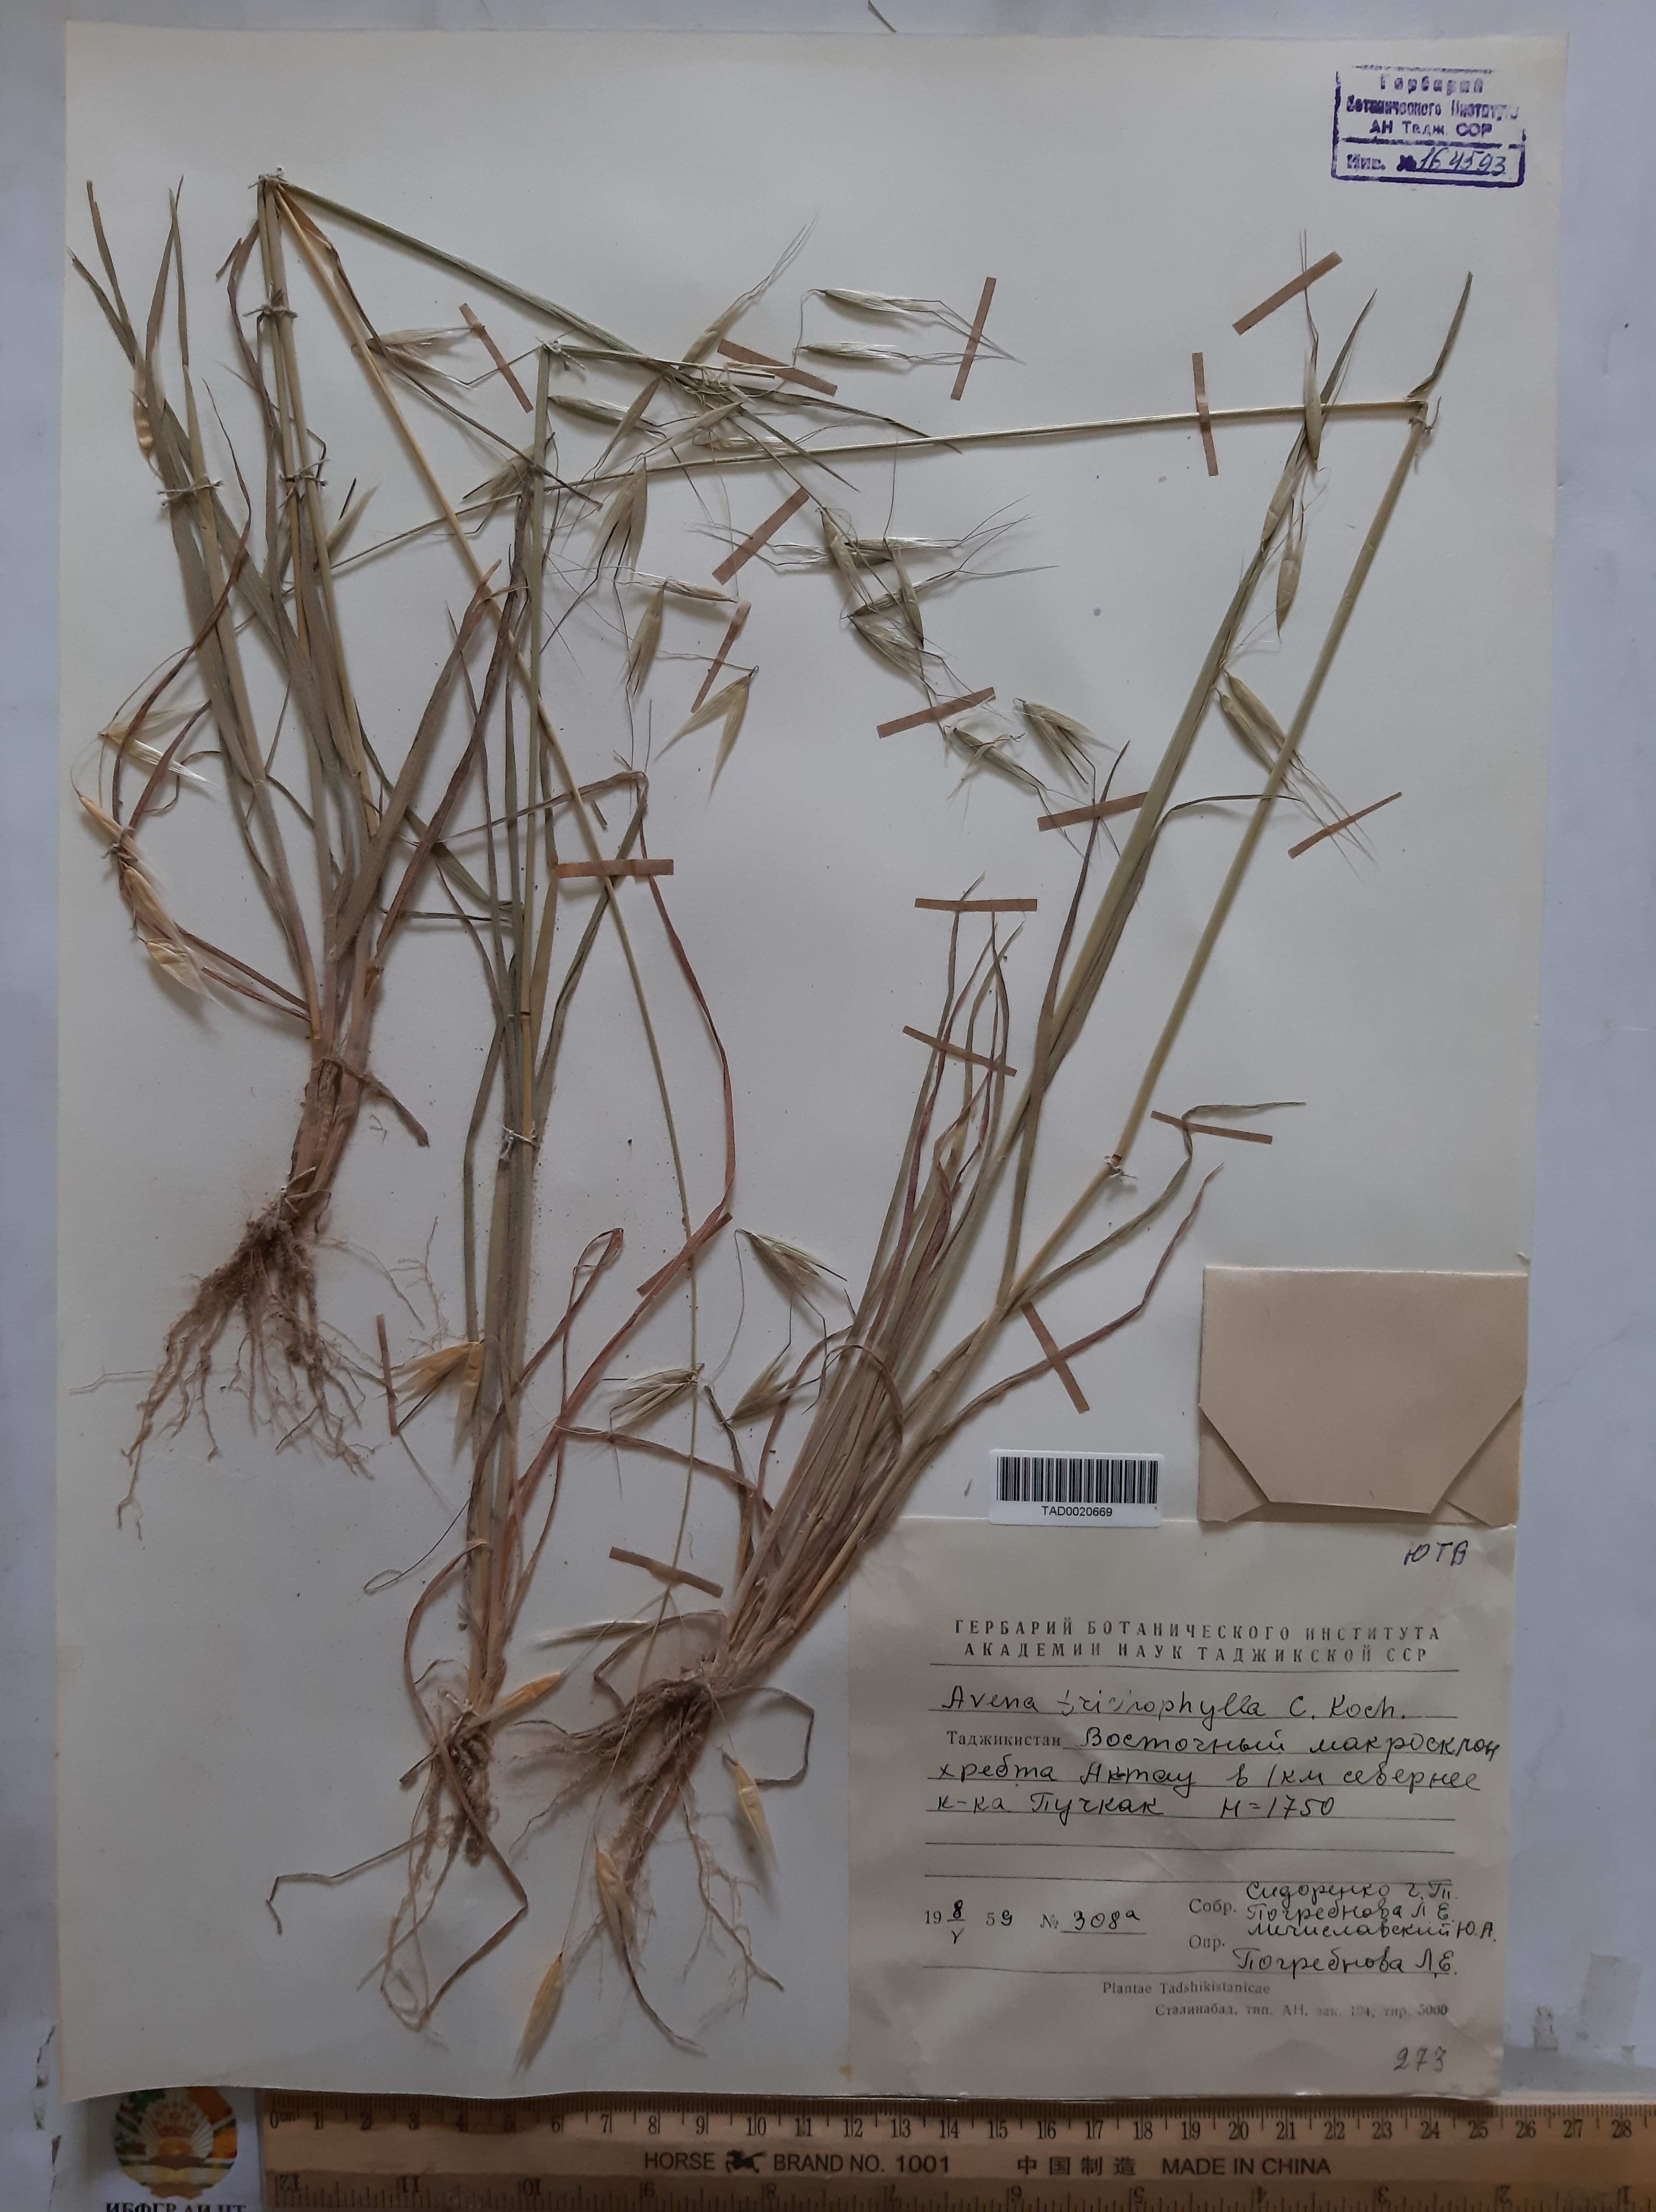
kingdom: Plantae
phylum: Tracheophyta
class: Liliopsida
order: Poales
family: Poaceae
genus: Avena
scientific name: Avena sterilis
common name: Animated oat
